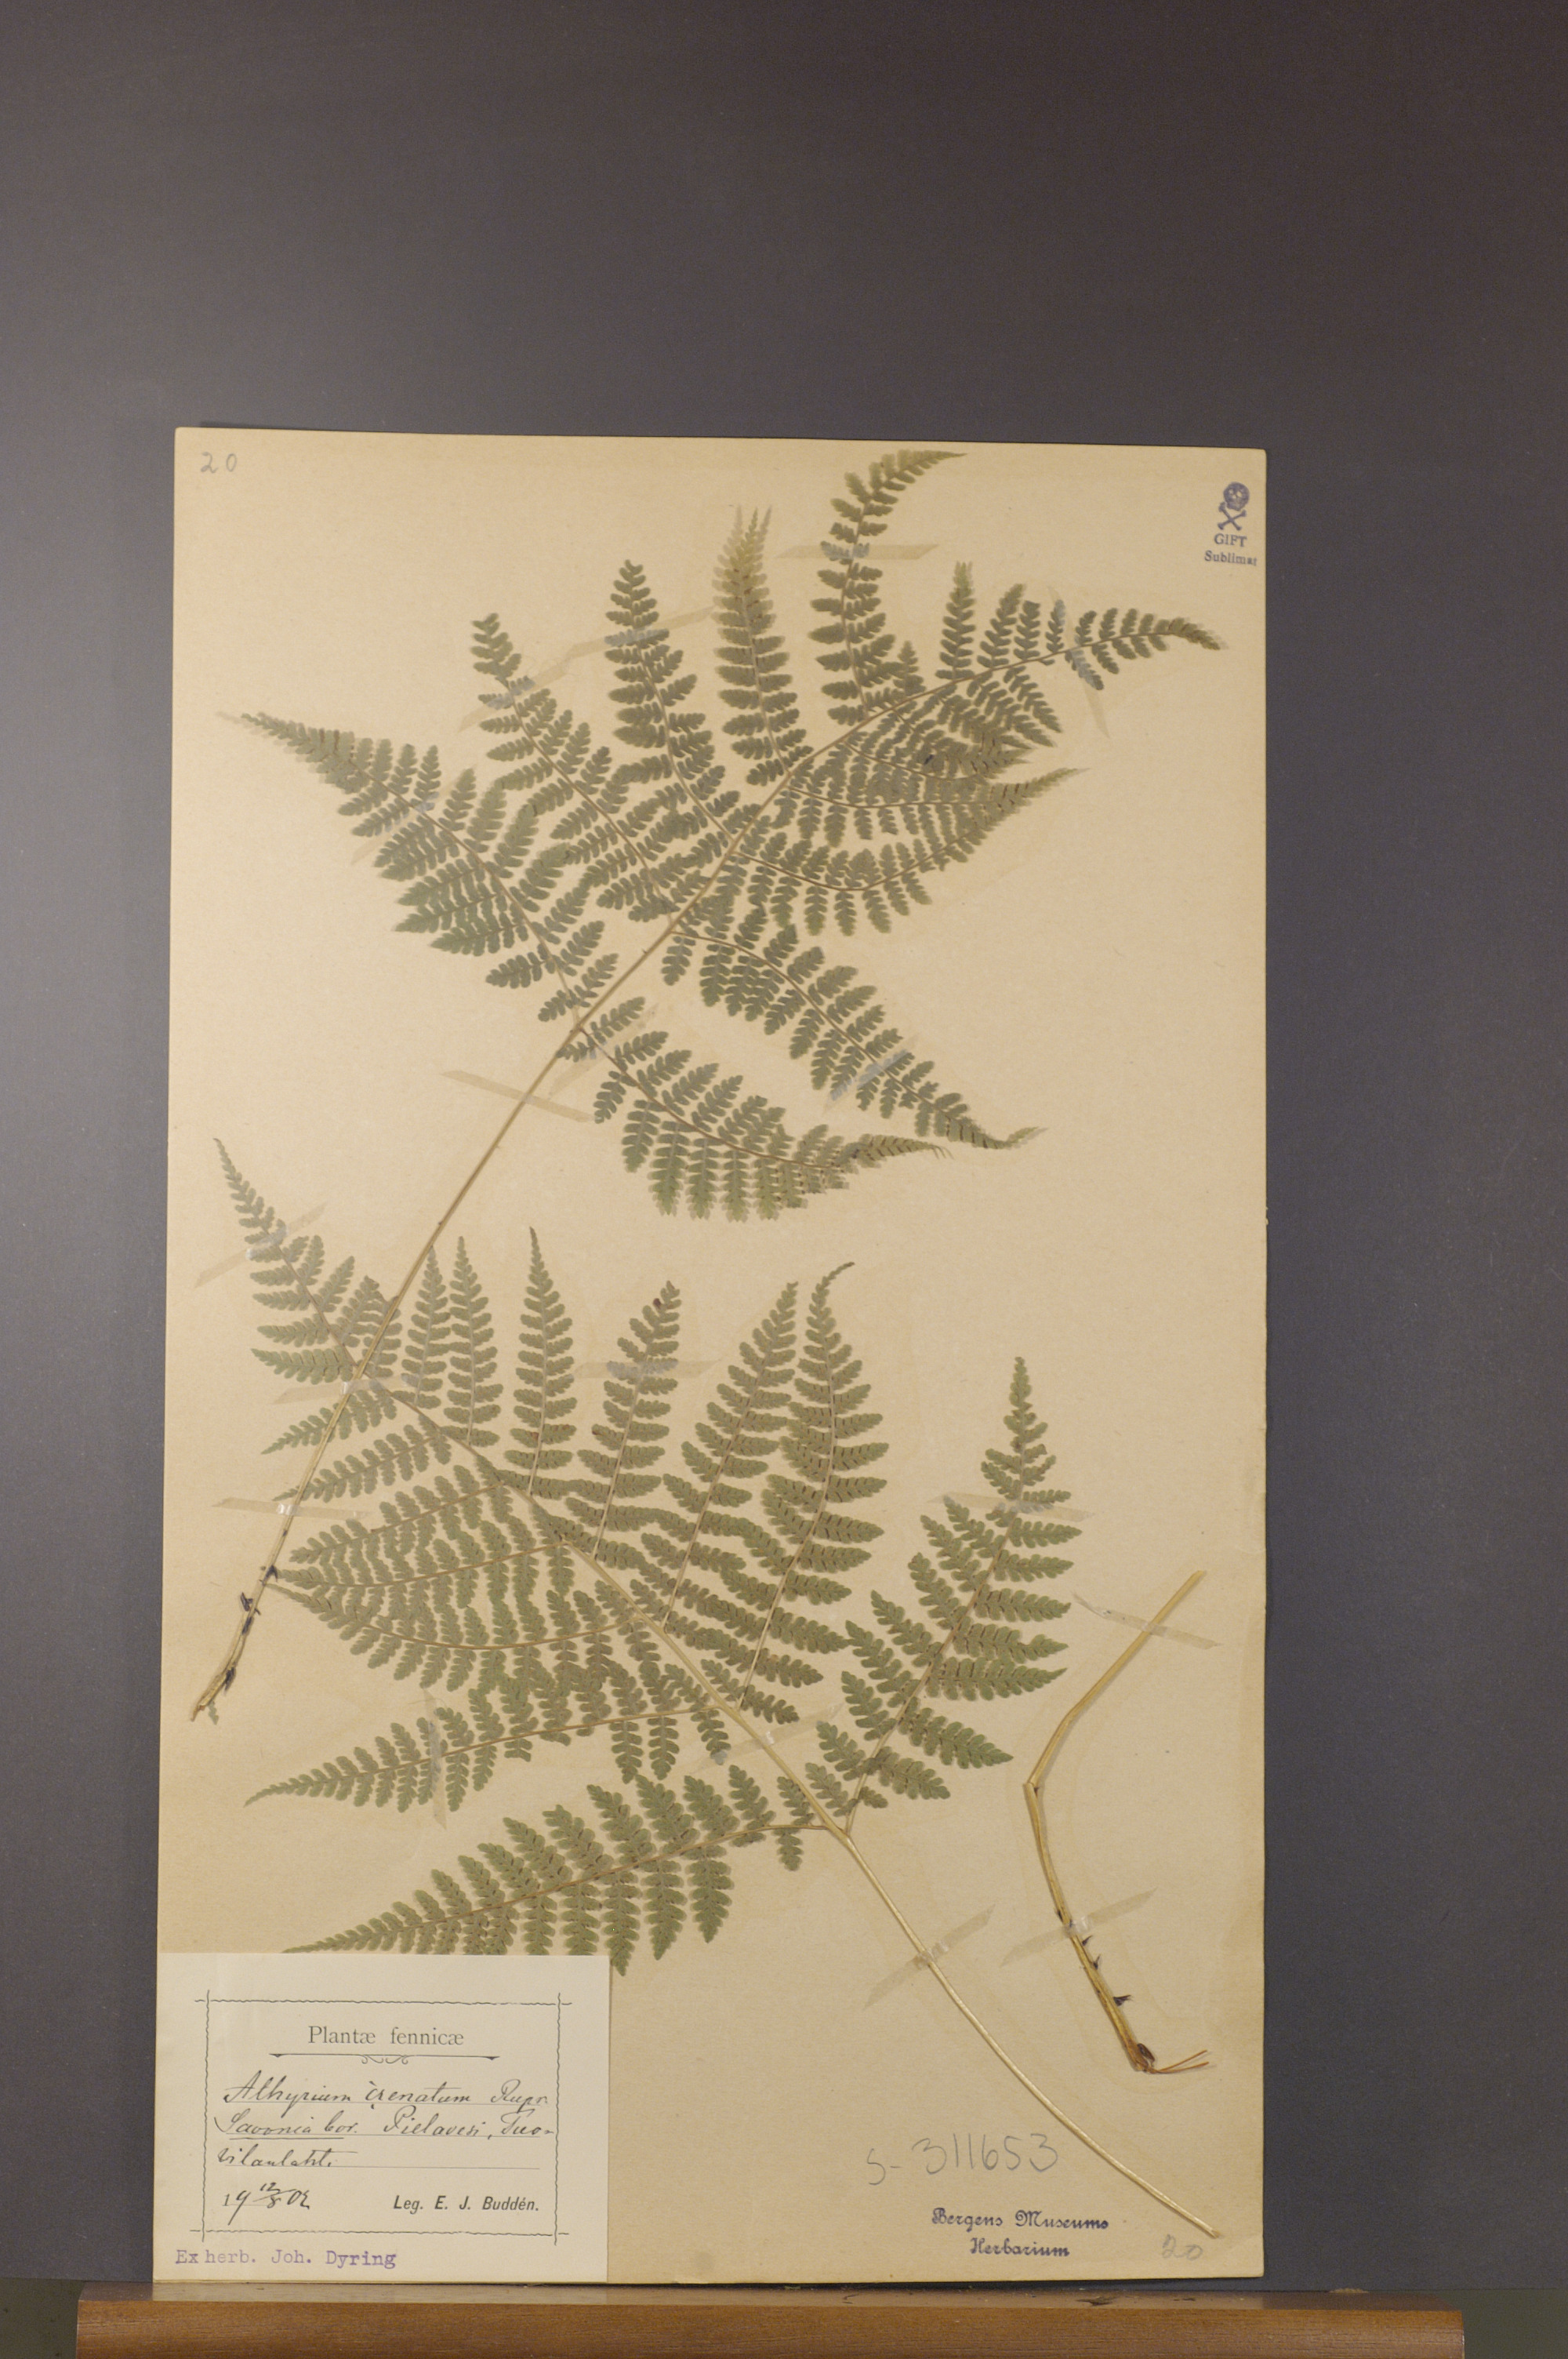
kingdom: Plantae
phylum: Tracheophyta
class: Polypodiopsida
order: Polypodiales
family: Athyriaceae
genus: Diplazium
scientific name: Diplazium sibiricum
